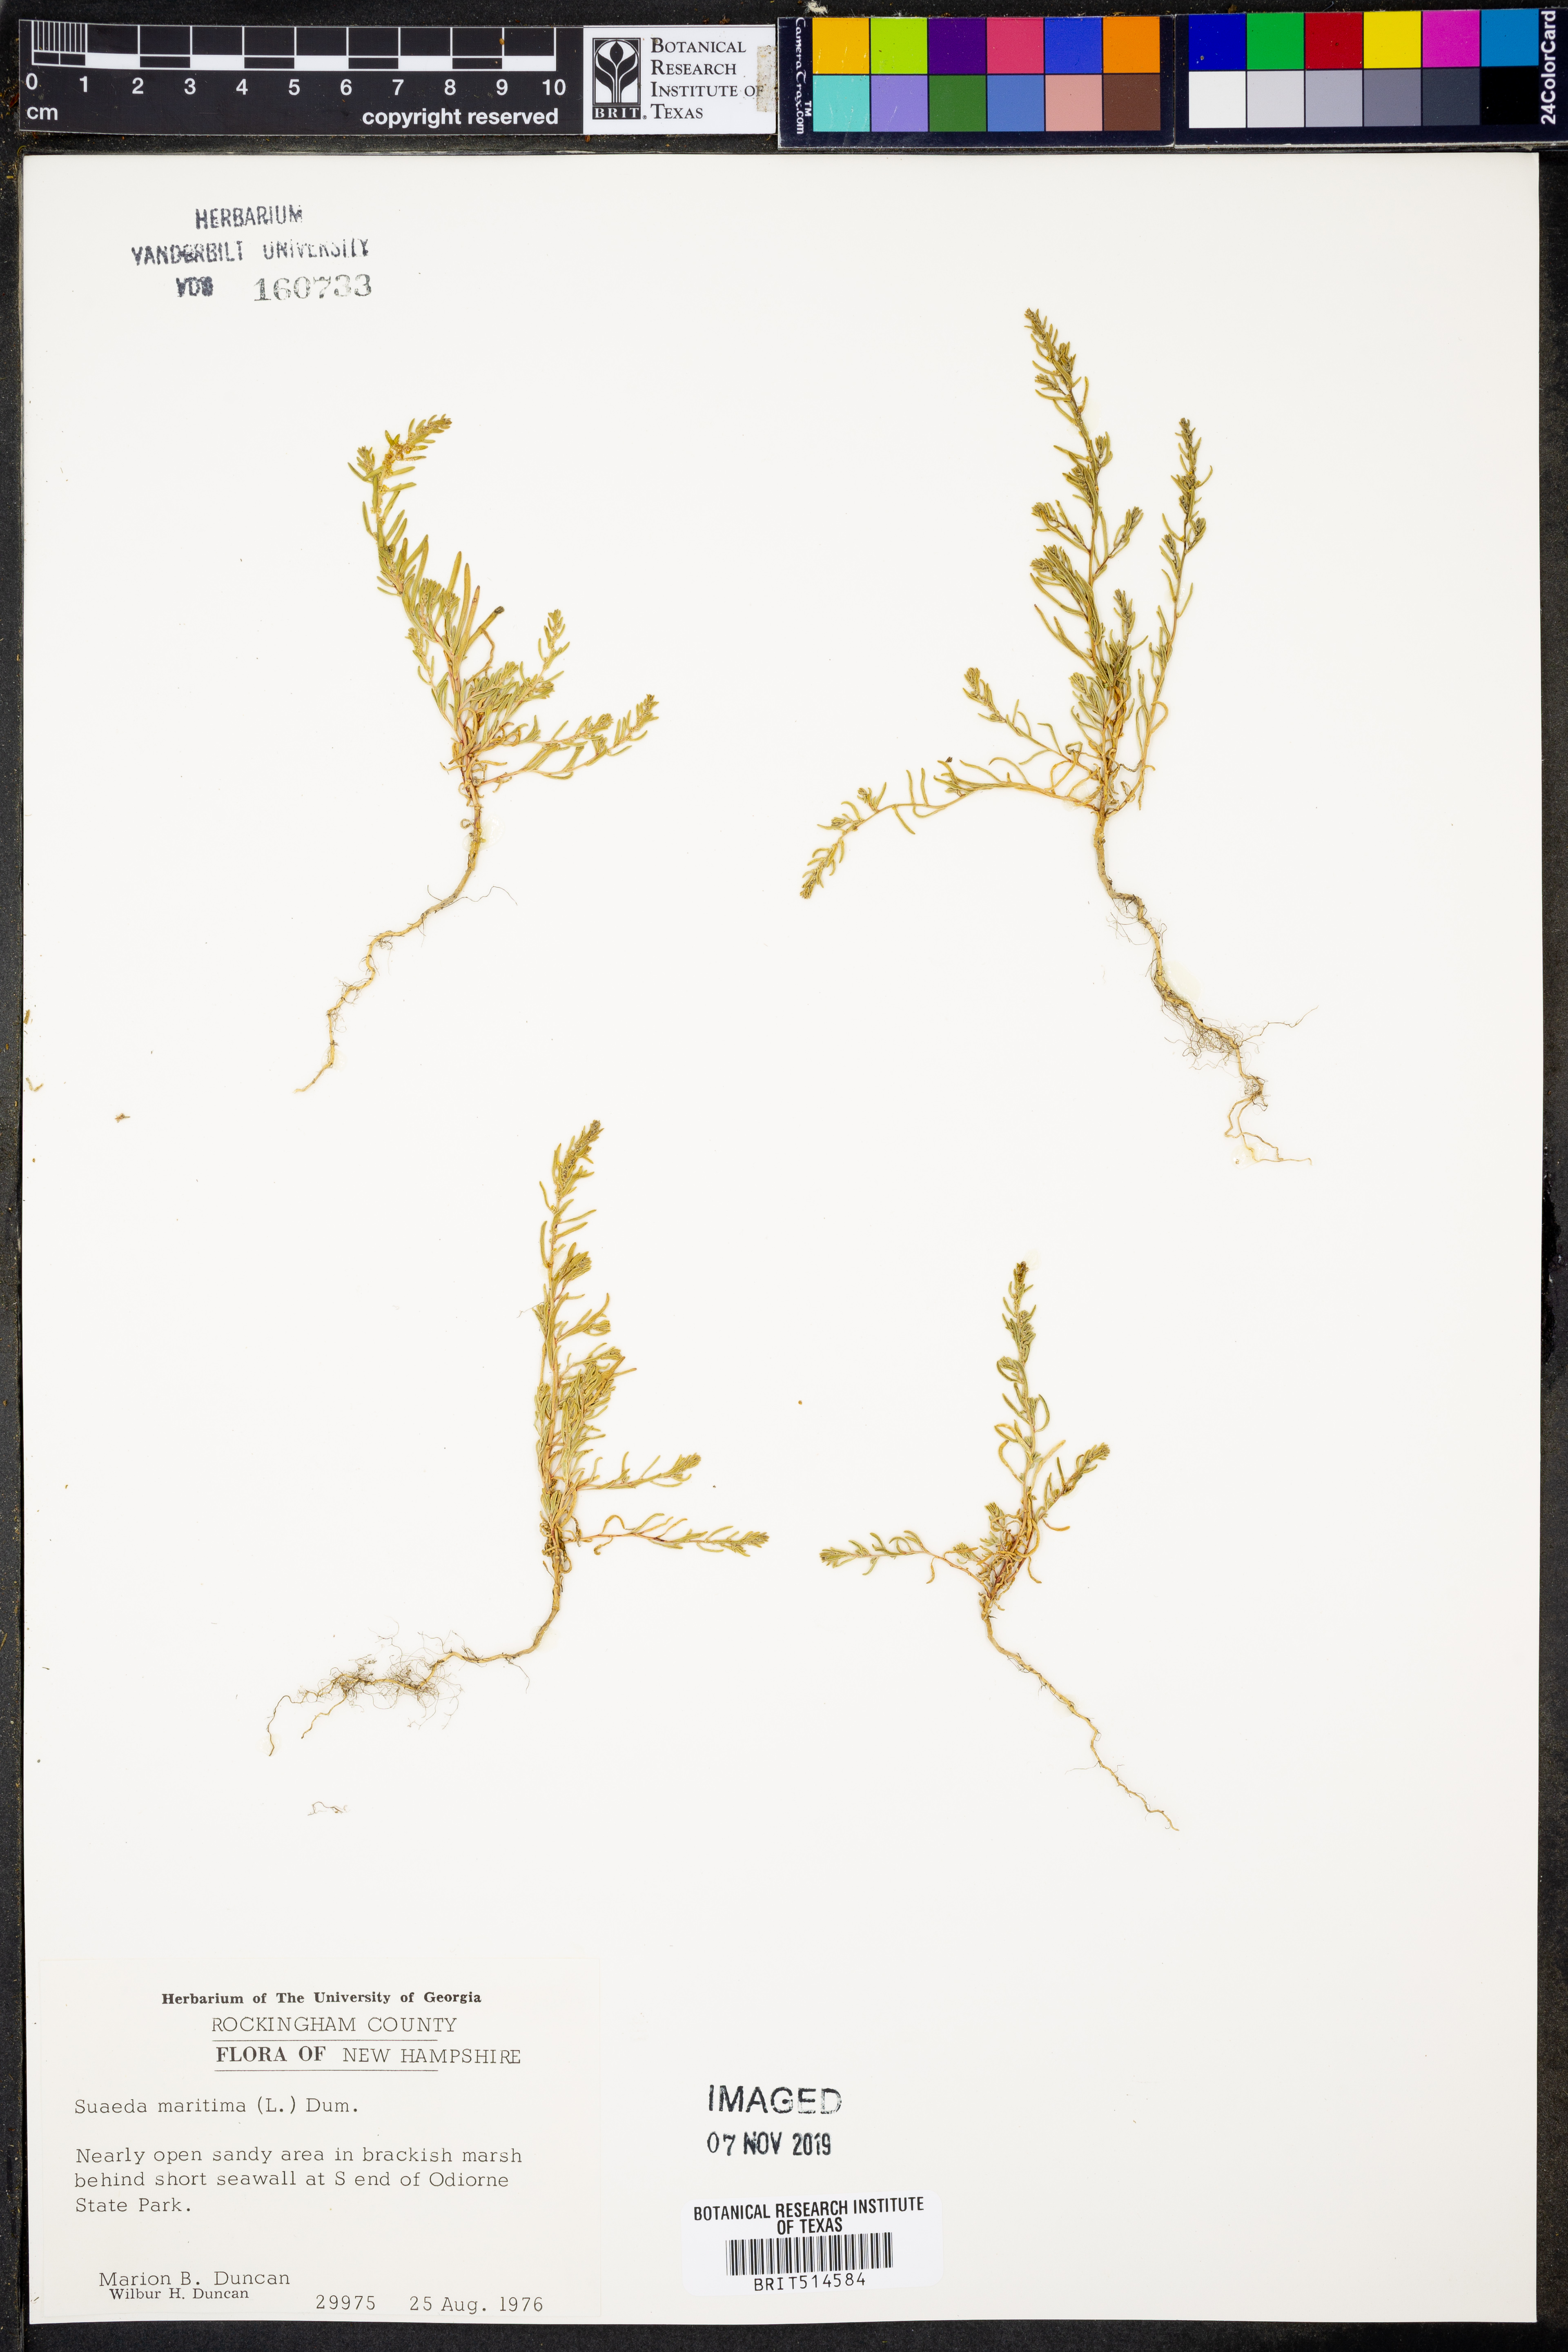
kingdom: Plantae
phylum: Tracheophyta
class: Magnoliopsida
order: Caryophyllales
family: Amaranthaceae
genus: Suaeda
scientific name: Suaeda maritima
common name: Annual sea-blite
